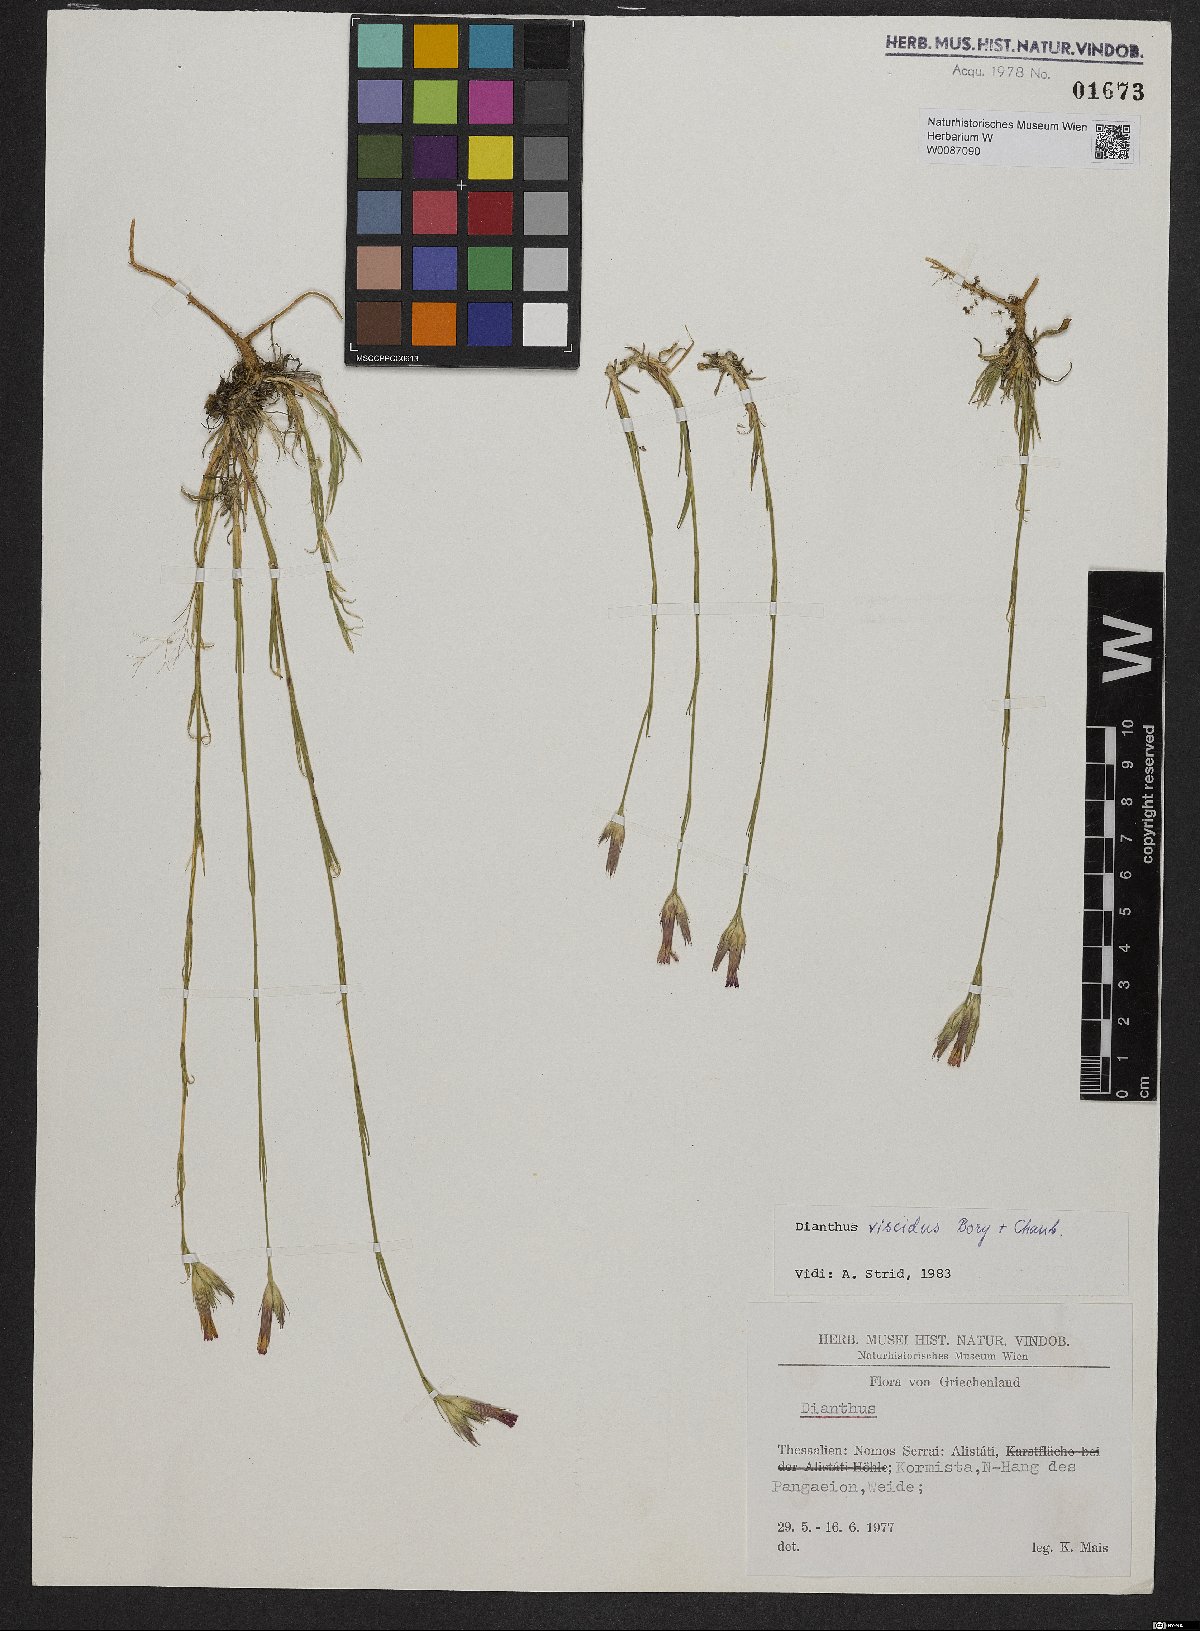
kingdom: Plantae
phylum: Tracheophyta
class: Magnoliopsida
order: Caryophyllales
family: Caryophyllaceae
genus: Dianthus
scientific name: Dianthus viscidus
